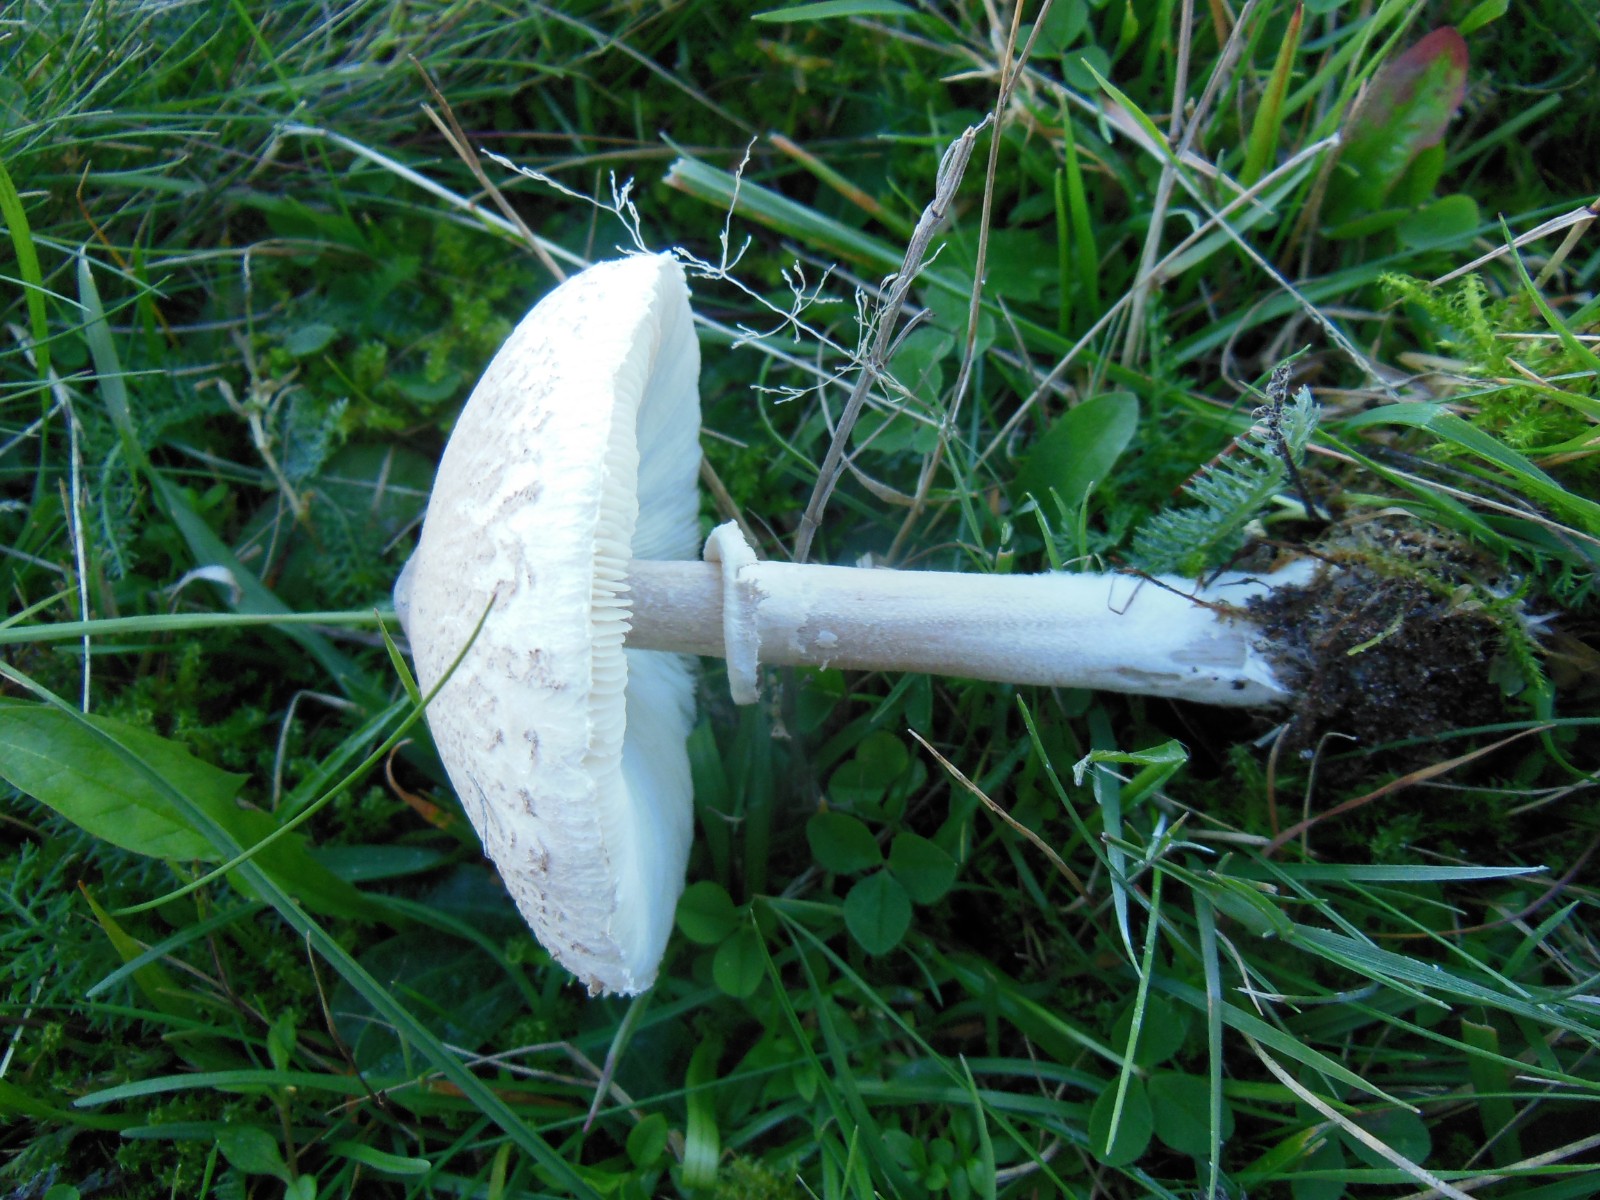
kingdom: Fungi
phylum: Basidiomycota
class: Agaricomycetes
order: Agaricales
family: Agaricaceae
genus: Macrolepiota
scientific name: Macrolepiota mastoidea
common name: puklet kæmpeparasolhat
